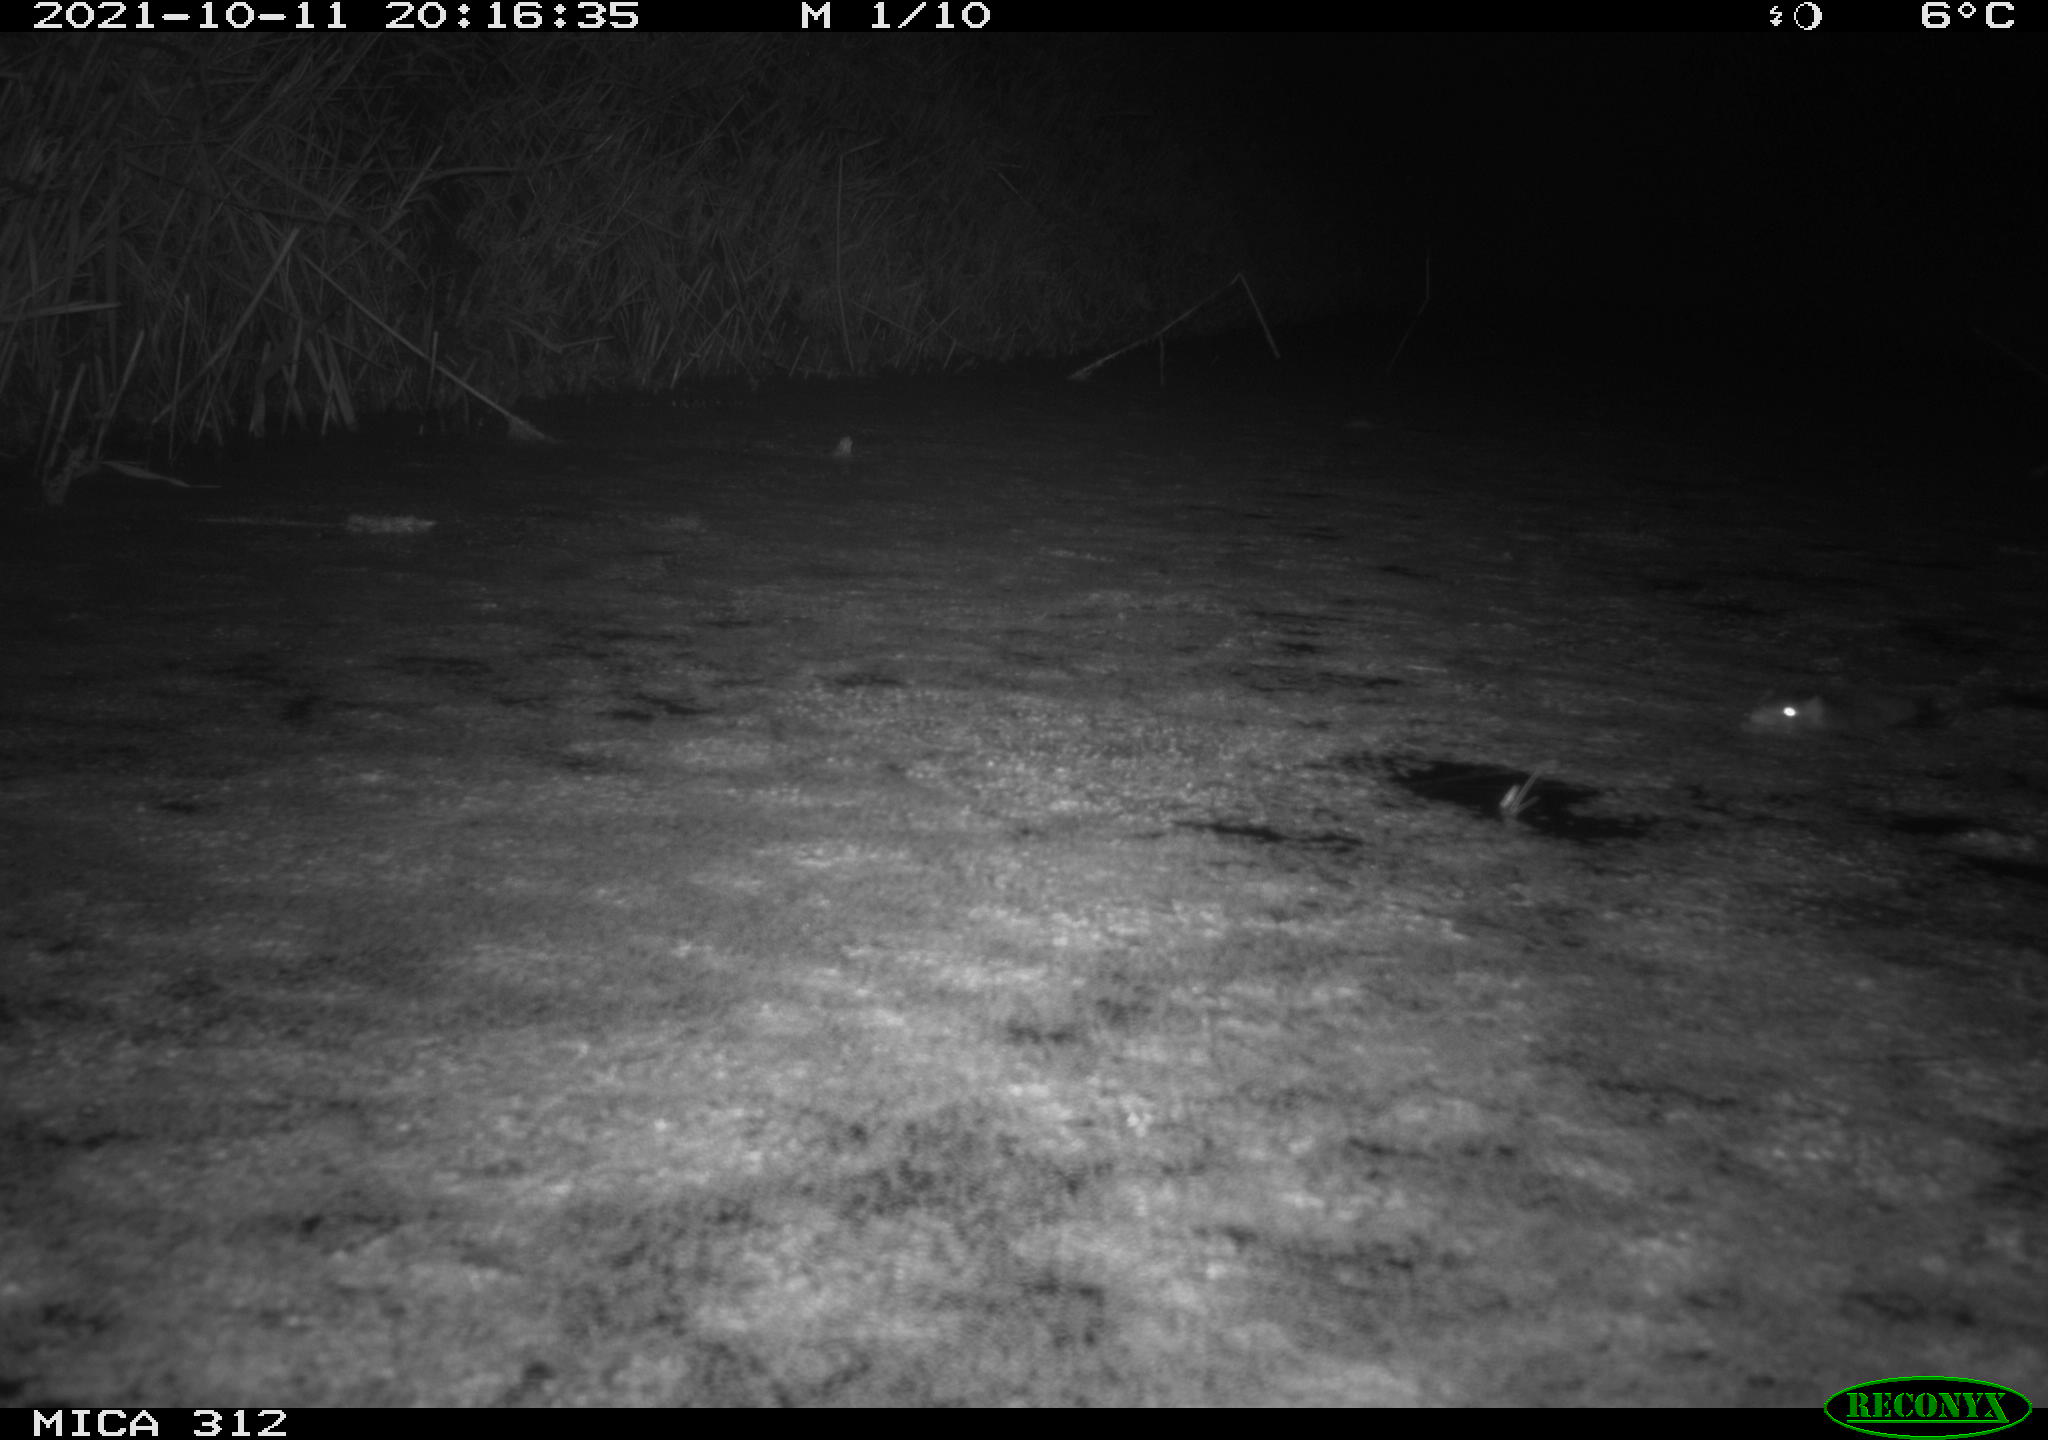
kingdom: Animalia
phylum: Chordata
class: Mammalia
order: Rodentia
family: Muridae
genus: Rattus
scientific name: Rattus norvegicus
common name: Brown rat
